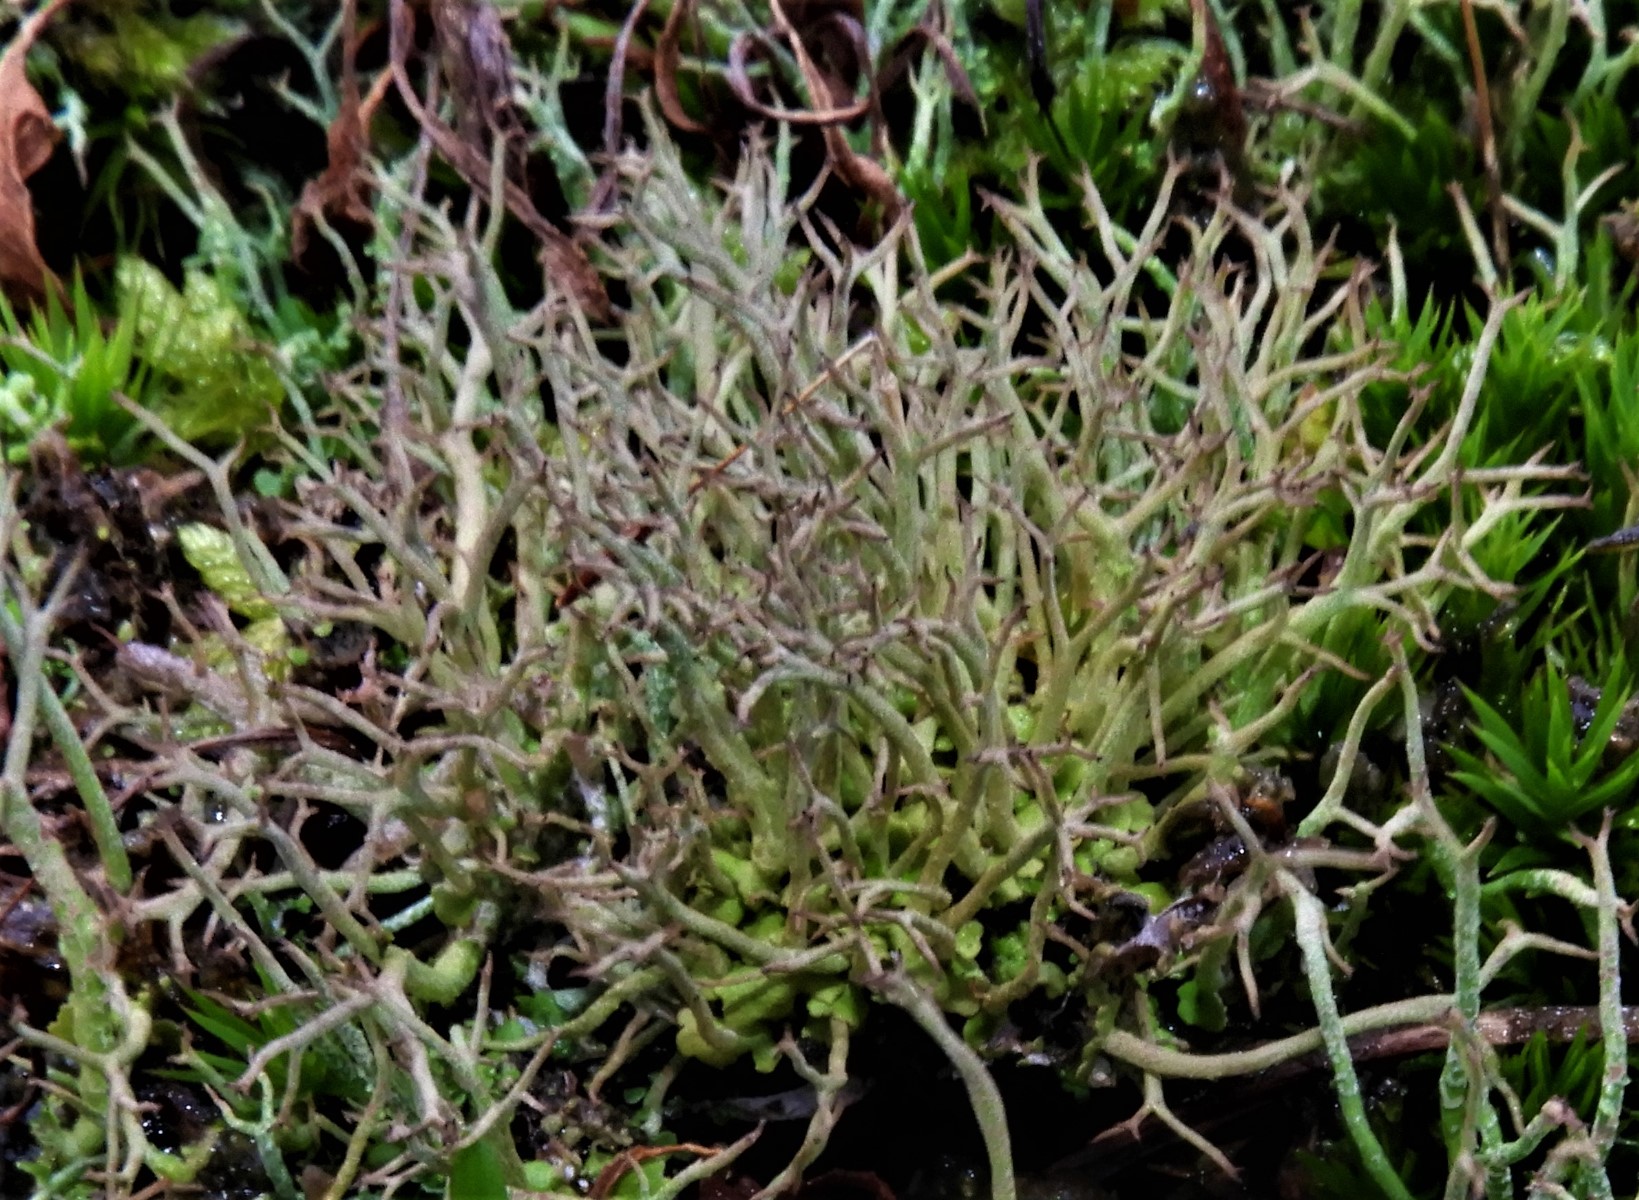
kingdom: Fungi
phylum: Ascomycota
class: Lecanoromycetes
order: Lecanorales
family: Cladoniaceae
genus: Cladonia
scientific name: Cladonia furcata
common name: kløftet bægerlav
